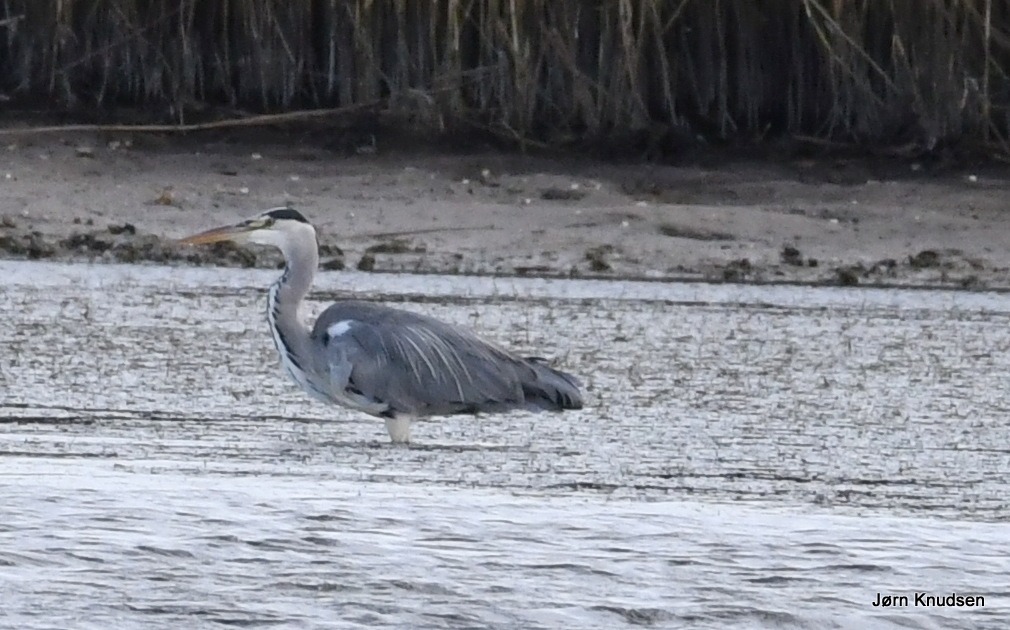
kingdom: Animalia
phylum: Chordata
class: Aves
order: Pelecaniformes
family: Ardeidae
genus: Ardea
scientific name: Ardea cinerea
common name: Fiskehejre
